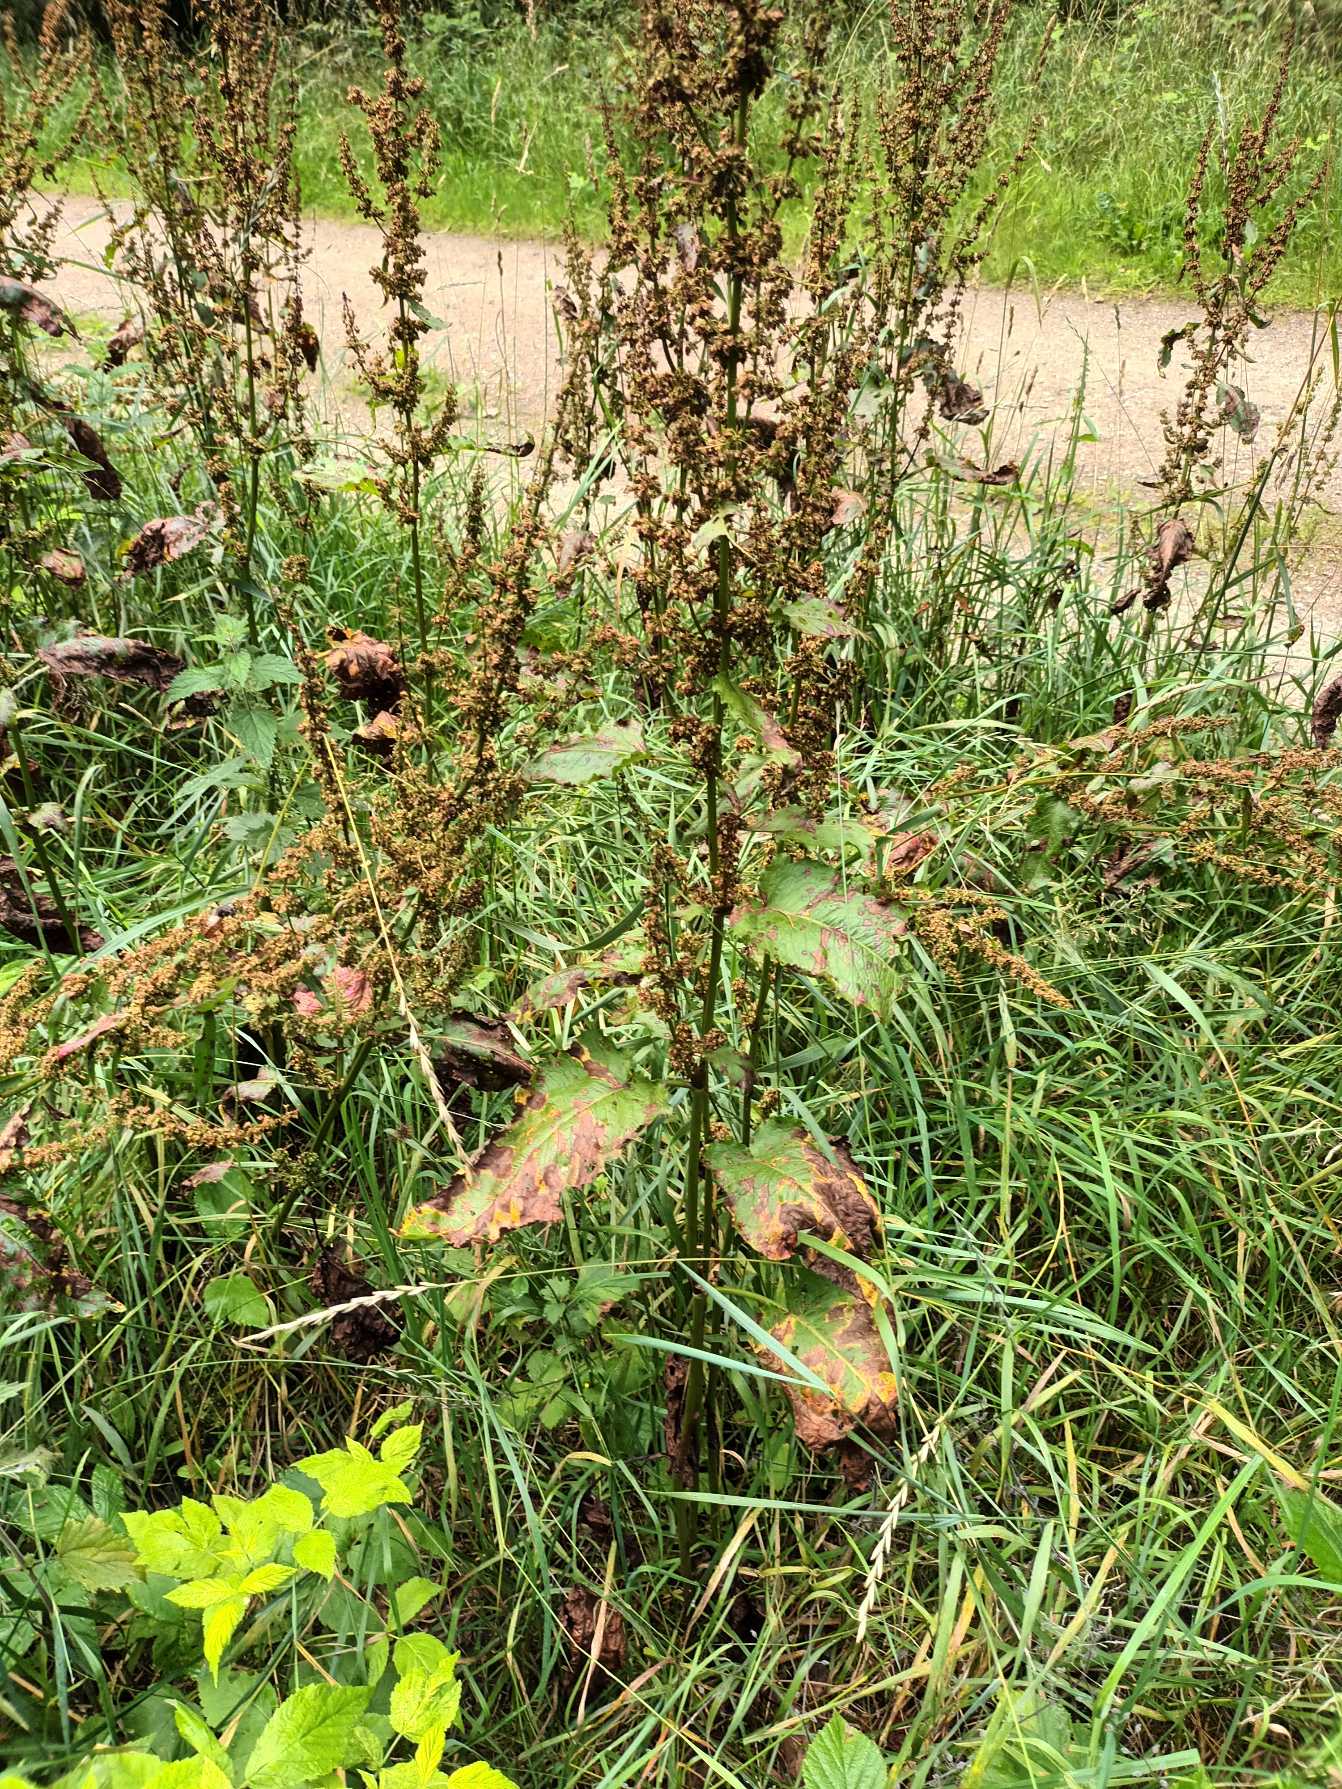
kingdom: Plantae
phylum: Tracheophyta
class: Magnoliopsida
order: Caryophyllales
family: Polygonaceae
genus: Rumex
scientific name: Rumex obtusifolius
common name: Butbladet skræppe
